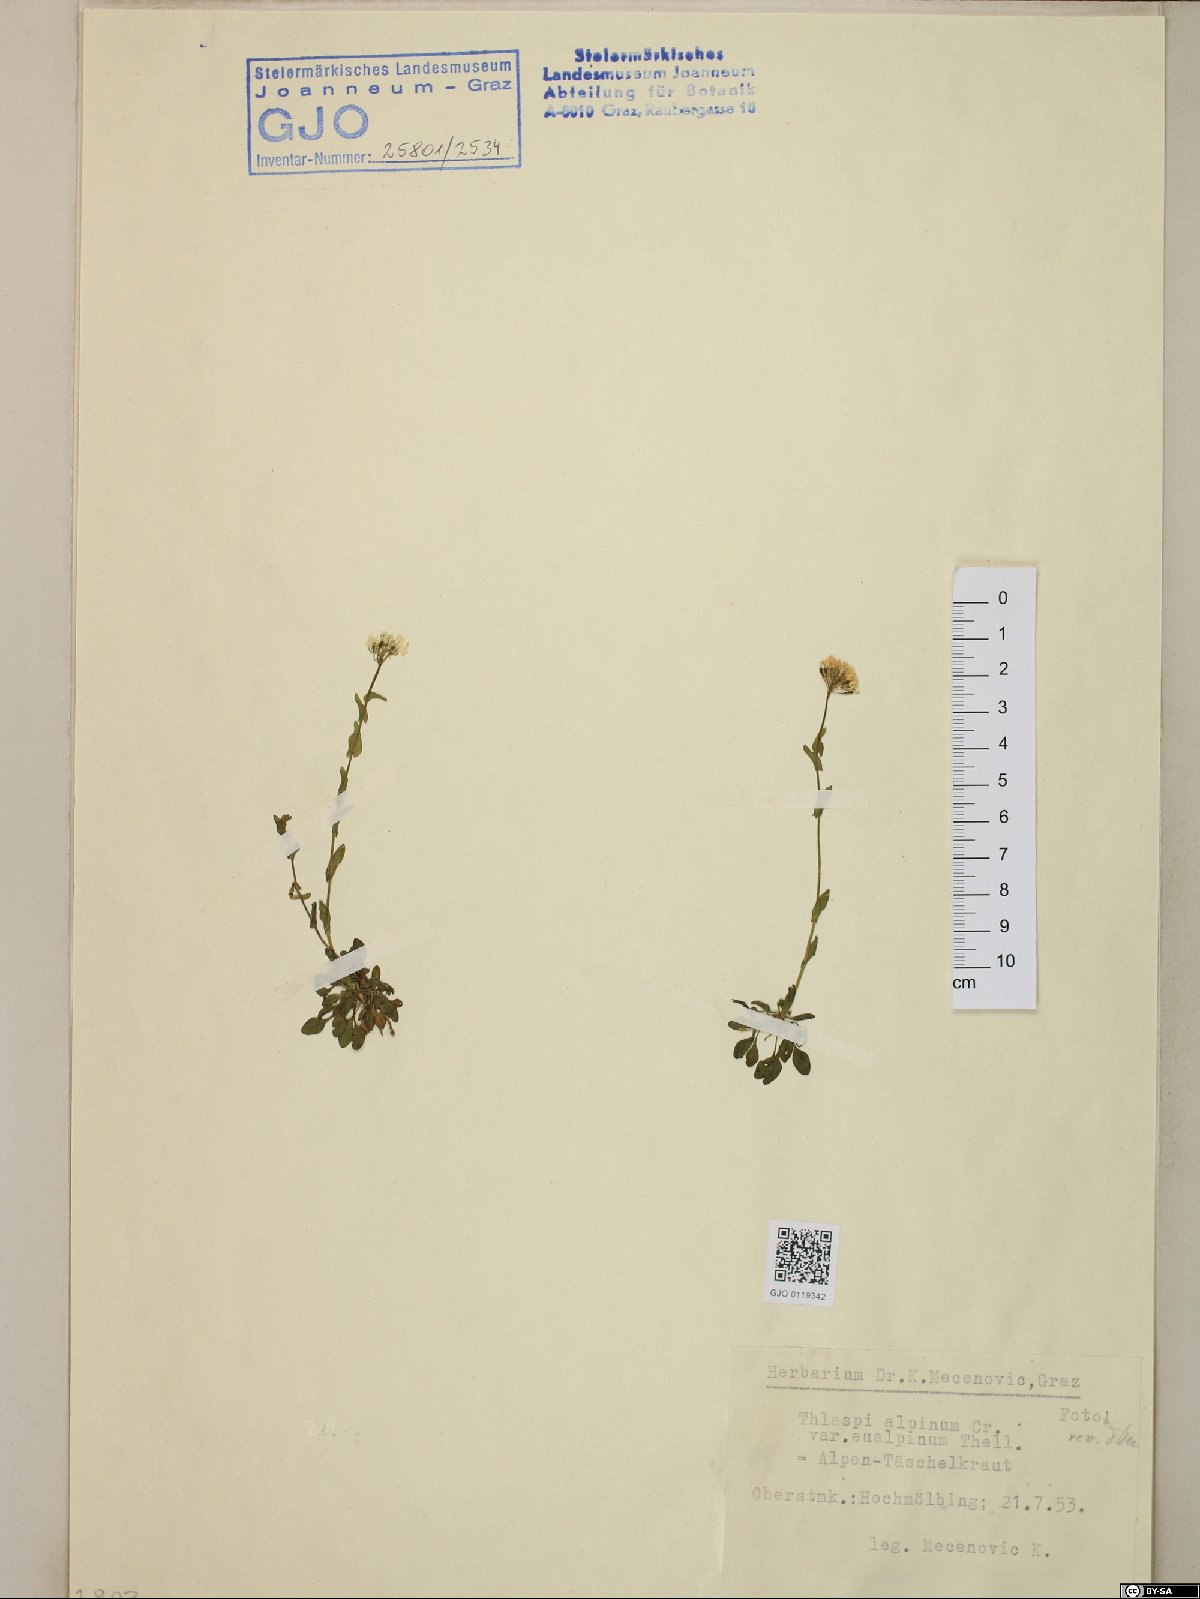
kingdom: Plantae
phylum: Tracheophyta
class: Magnoliopsida
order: Brassicales
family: Brassicaceae
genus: Noccaea
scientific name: Noccaea alpestris
